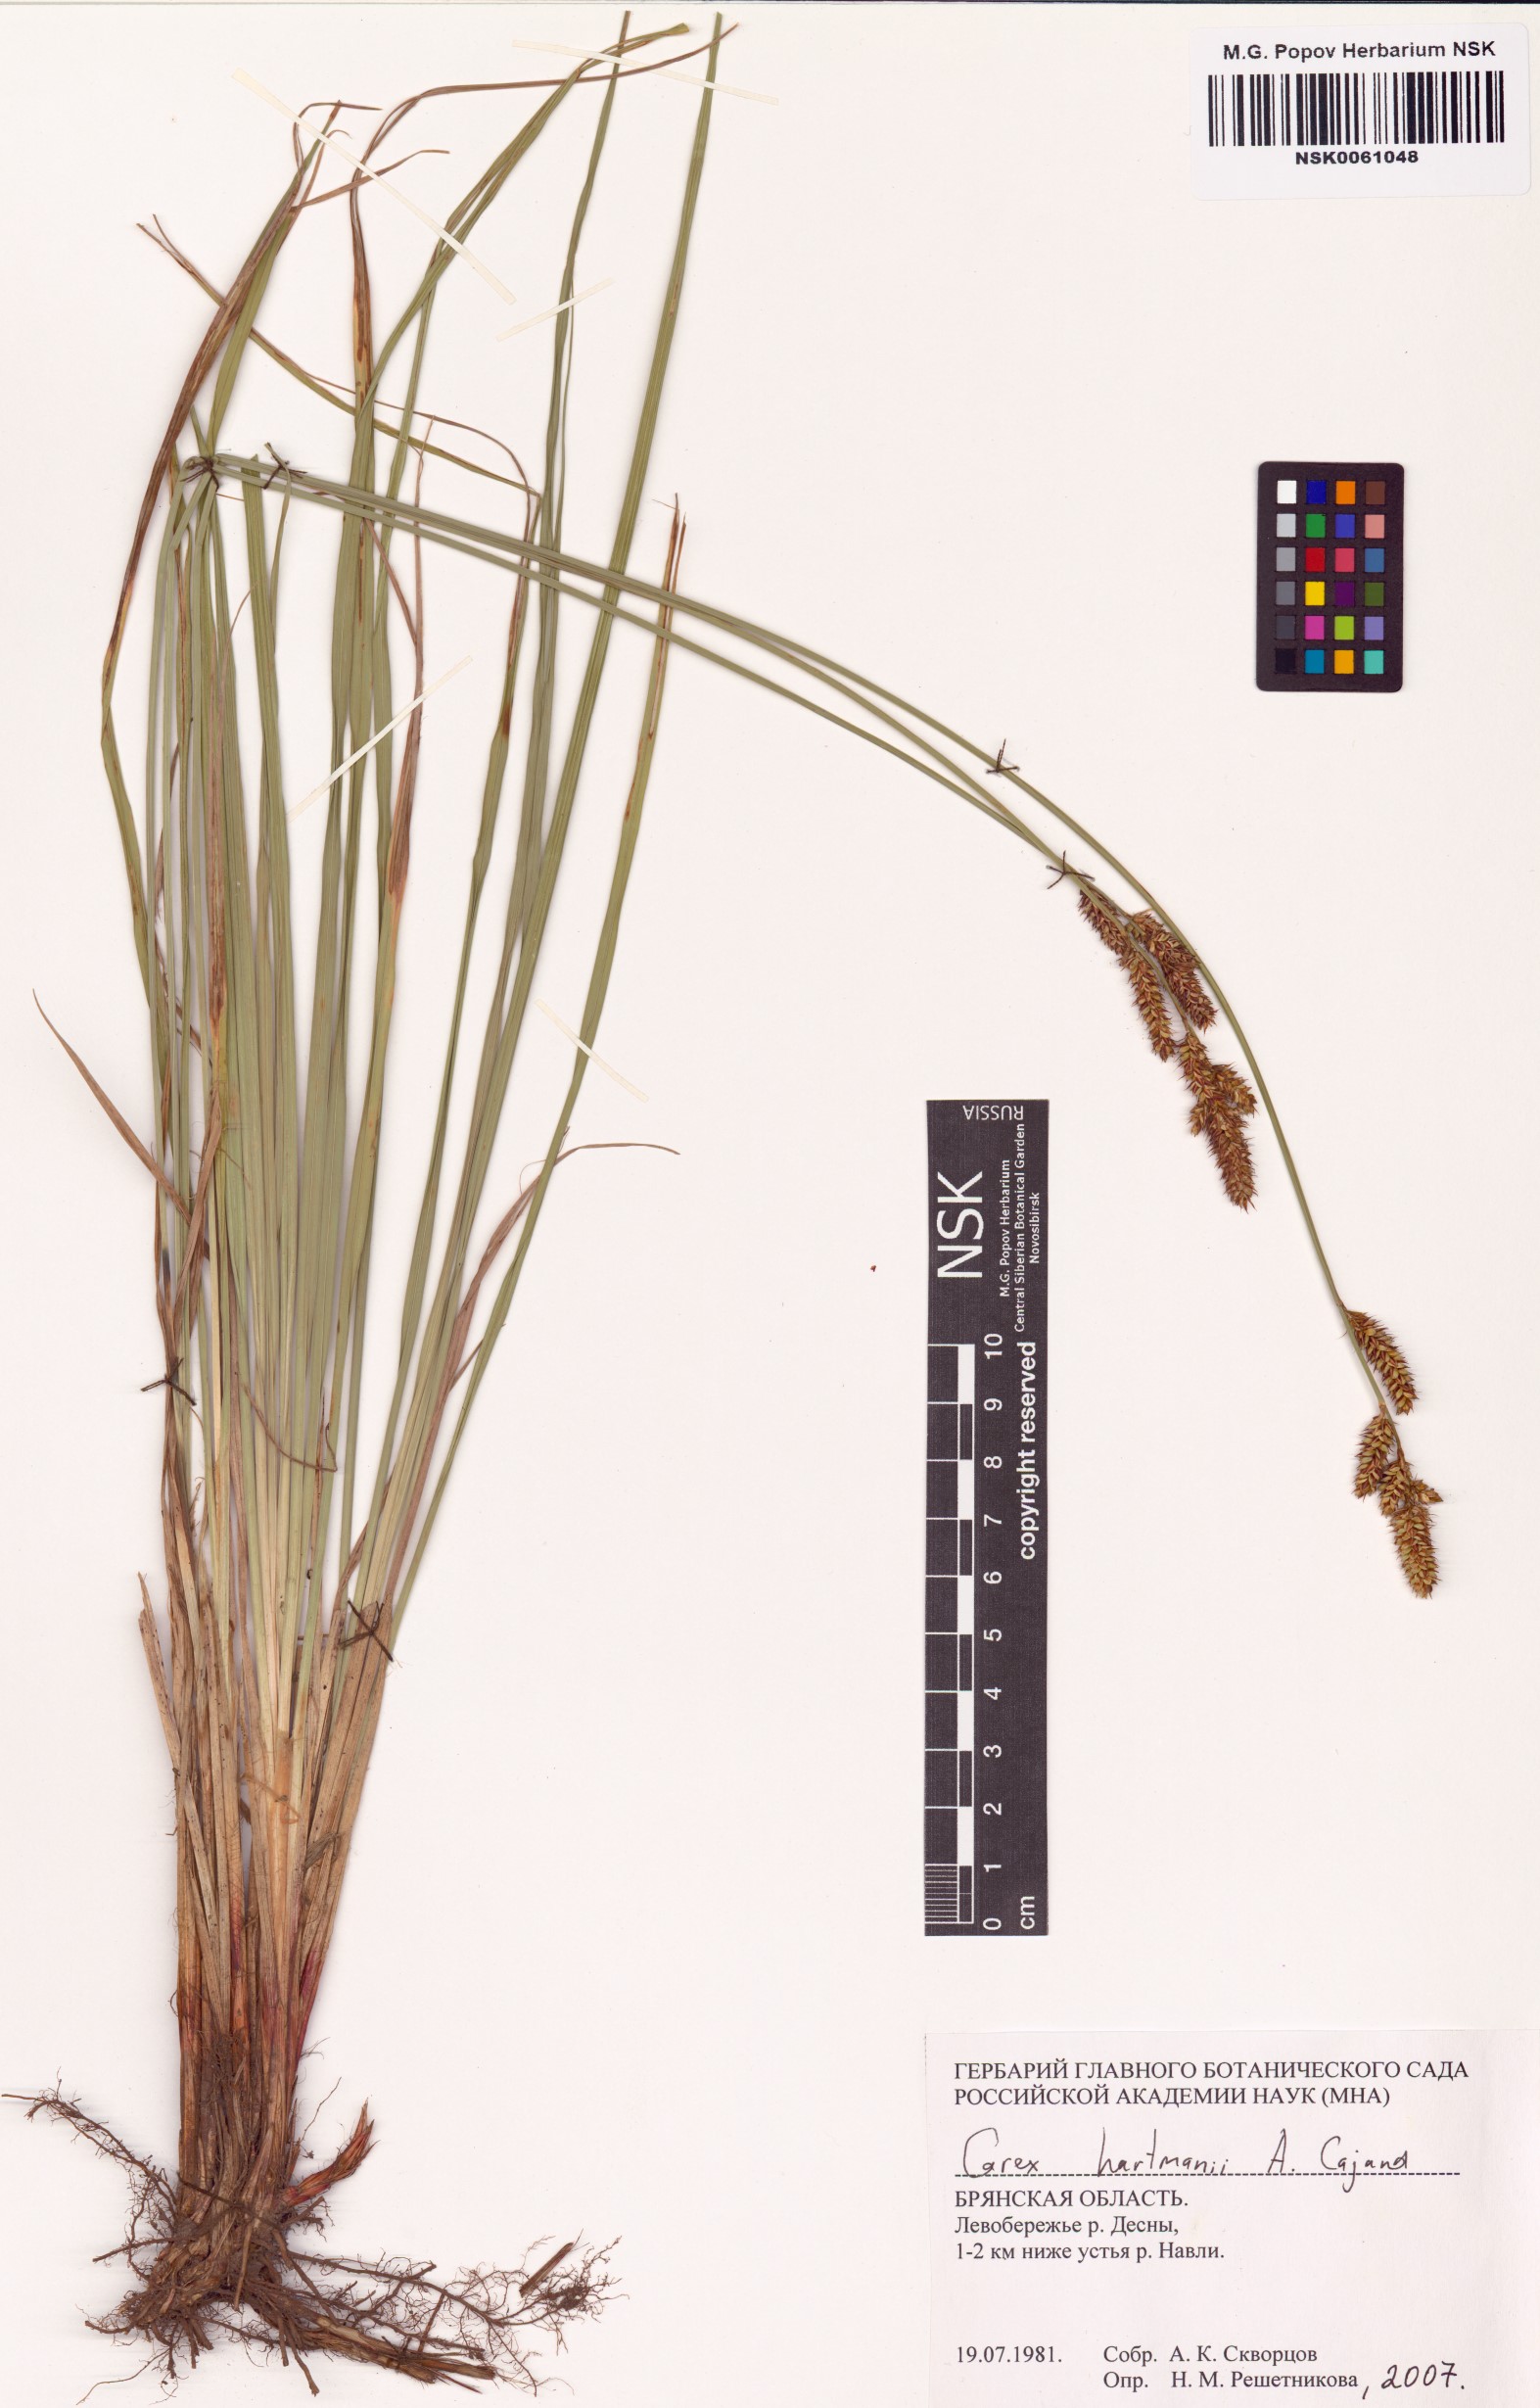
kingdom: Plantae
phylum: Tracheophyta
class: Liliopsida
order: Poales
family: Cyperaceae
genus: Carex
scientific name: Carex hartmaniorum
